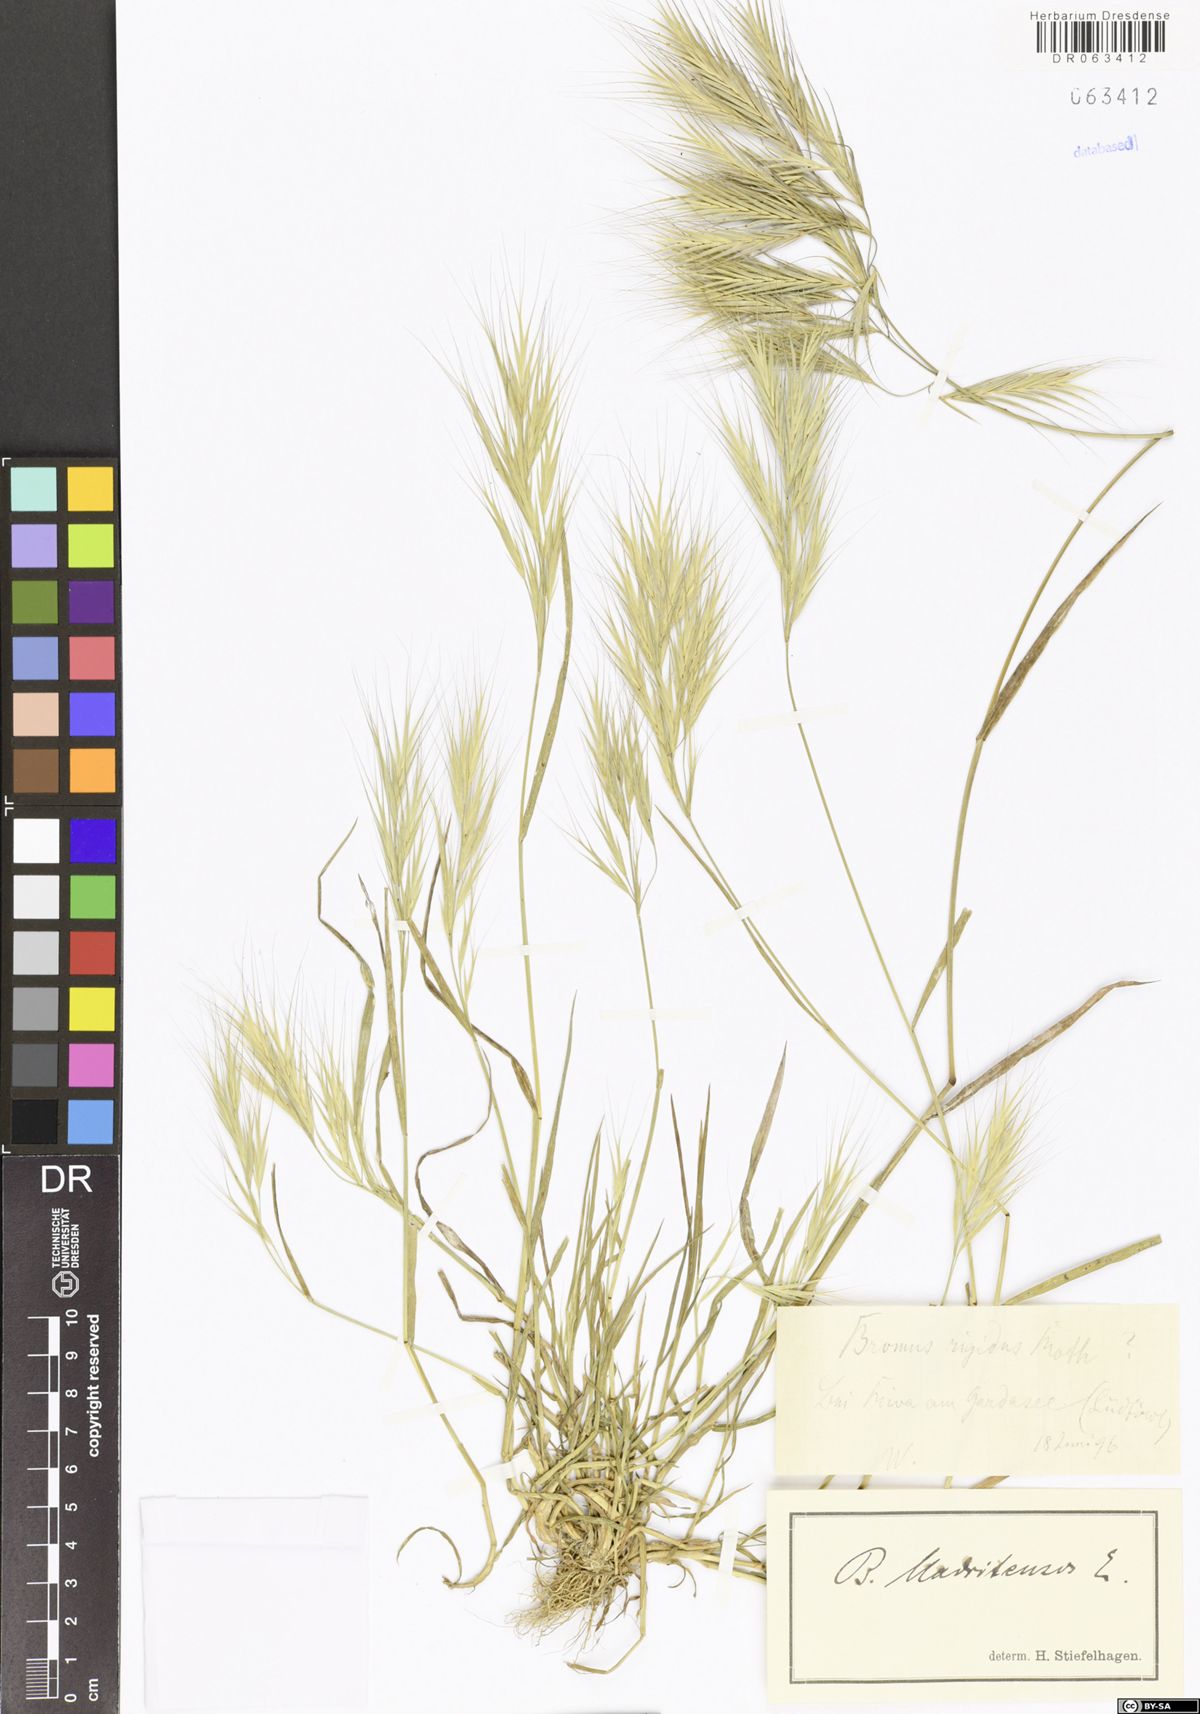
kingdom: Plantae
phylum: Tracheophyta
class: Liliopsida
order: Poales
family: Poaceae
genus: Bromus
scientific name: Bromus madritensis
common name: Compact brome
